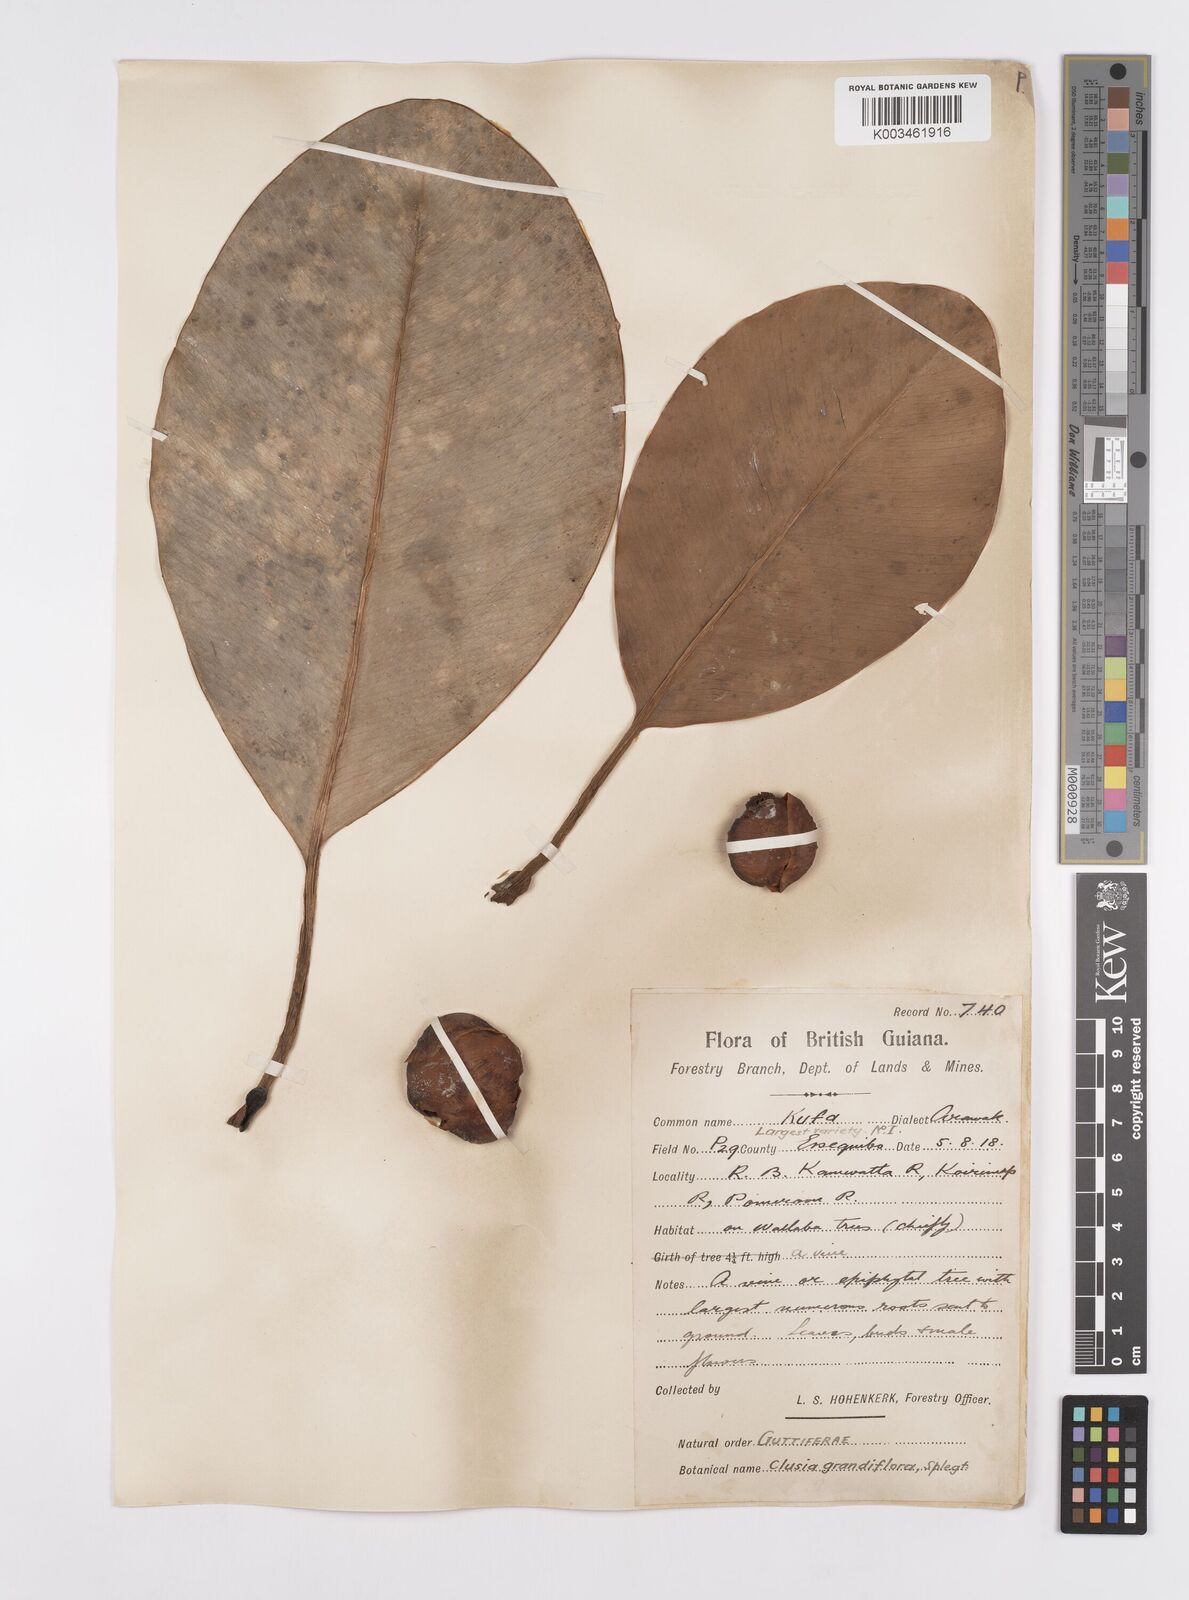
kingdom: Plantae
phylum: Tracheophyta
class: Magnoliopsida
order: Malpighiales
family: Clusiaceae
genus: Clusia
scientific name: Clusia grandiflora
